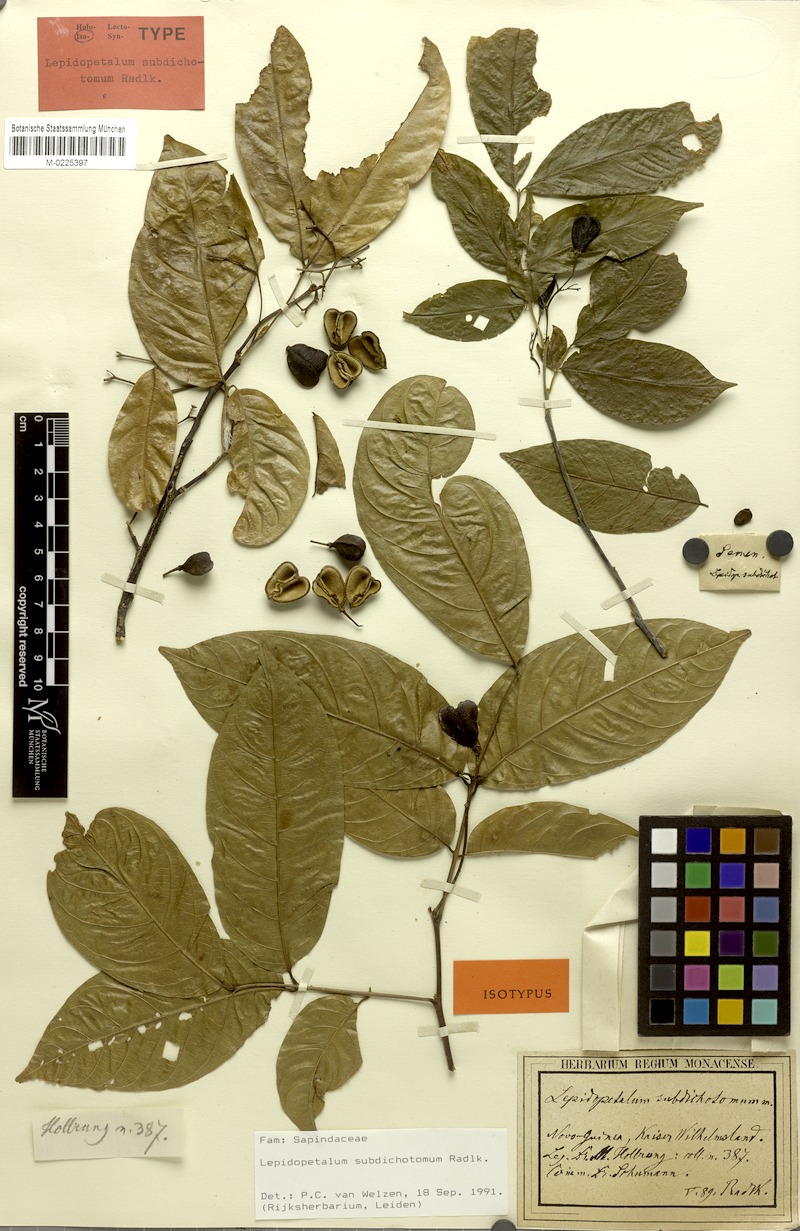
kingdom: Plantae
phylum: Tracheophyta
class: Magnoliopsida
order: Sapindales
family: Sapindaceae
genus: Lepidopetalum
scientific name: Lepidopetalum subdichotomum
